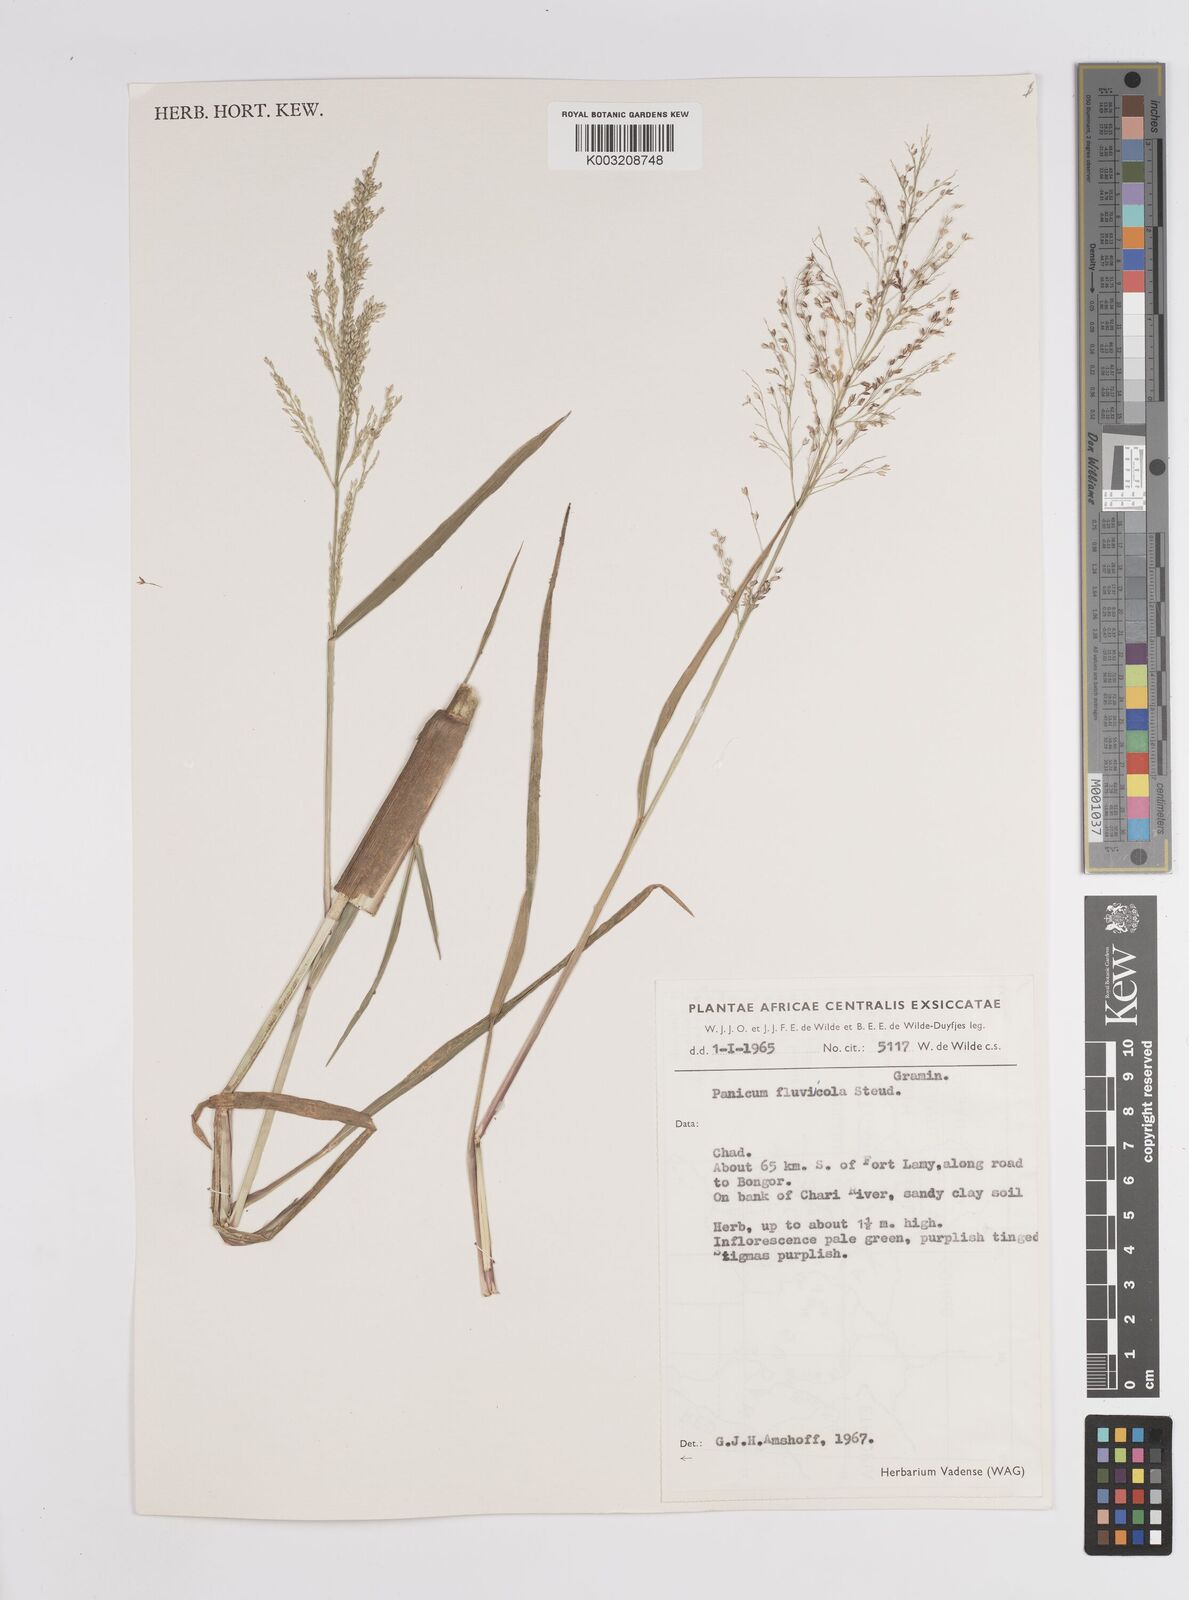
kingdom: Plantae
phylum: Tracheophyta
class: Liliopsida
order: Poales
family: Poaceae
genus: Panicum
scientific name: Panicum fluviicola
